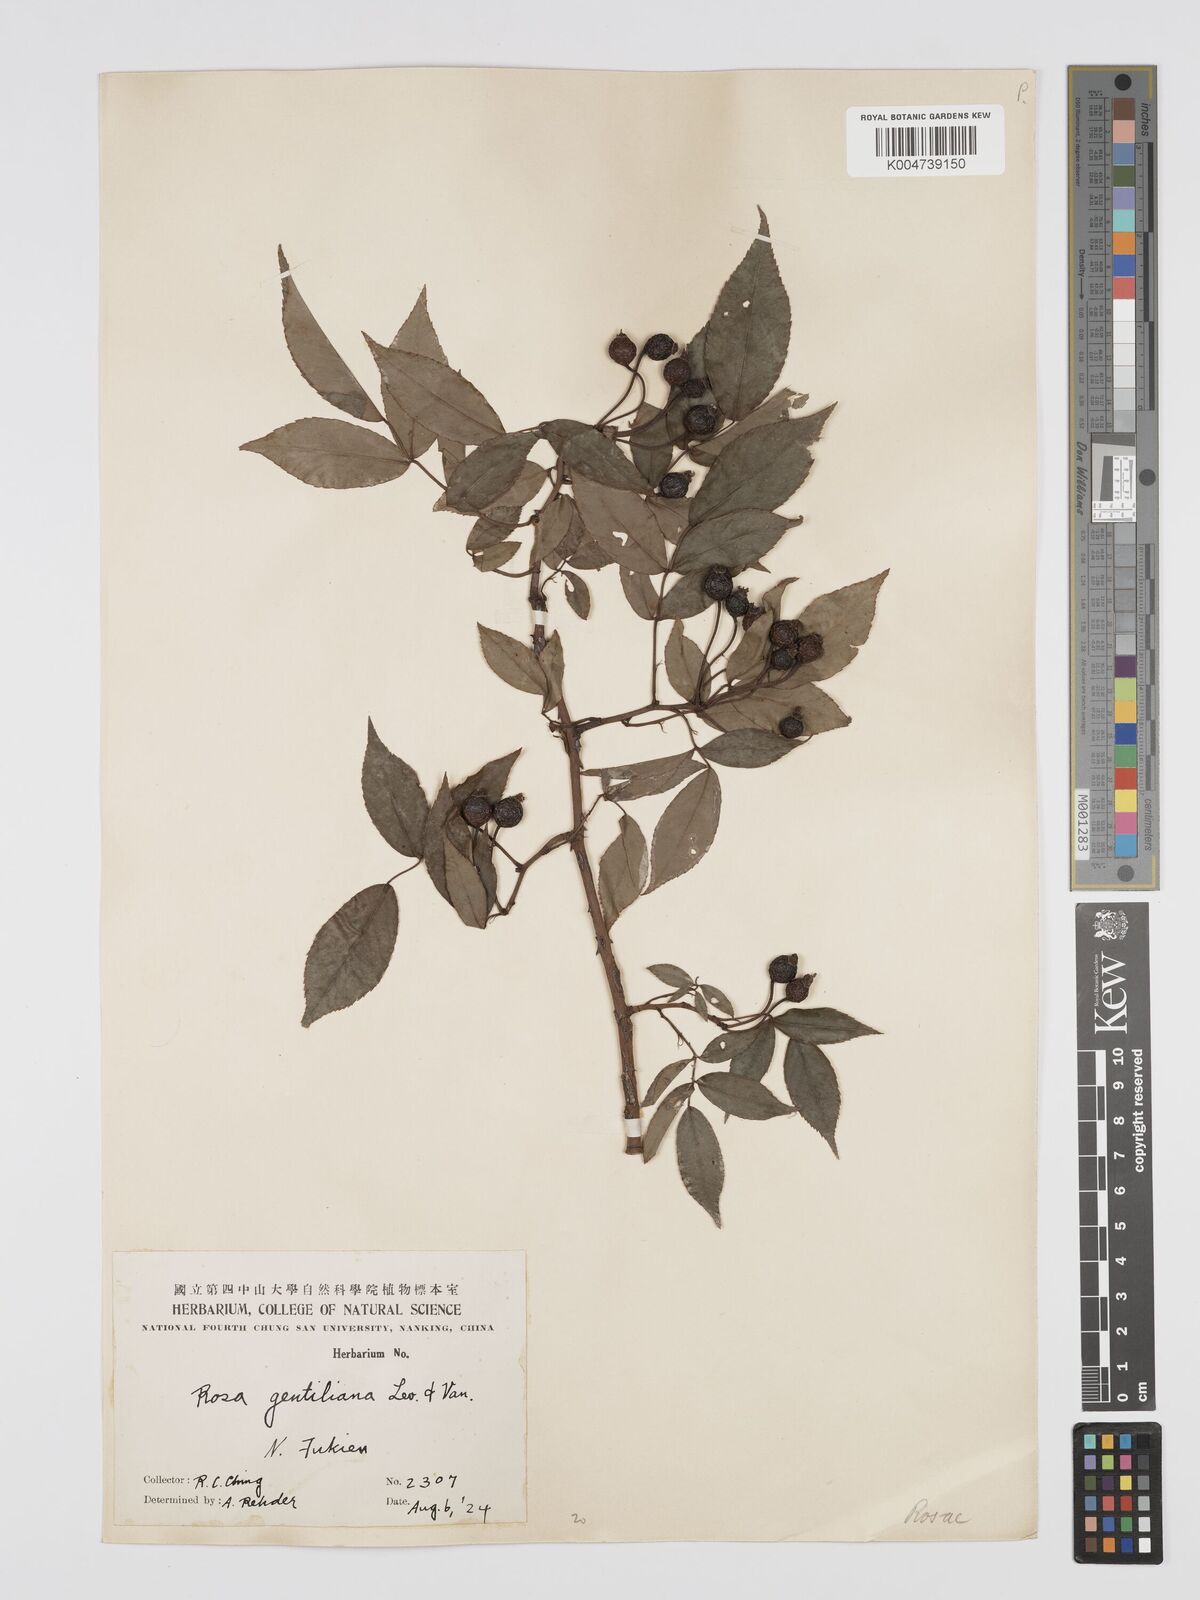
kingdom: Plantae
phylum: Tracheophyta
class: Magnoliopsida
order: Rosales
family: Rosaceae
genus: Rosa
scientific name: Rosa henryi
